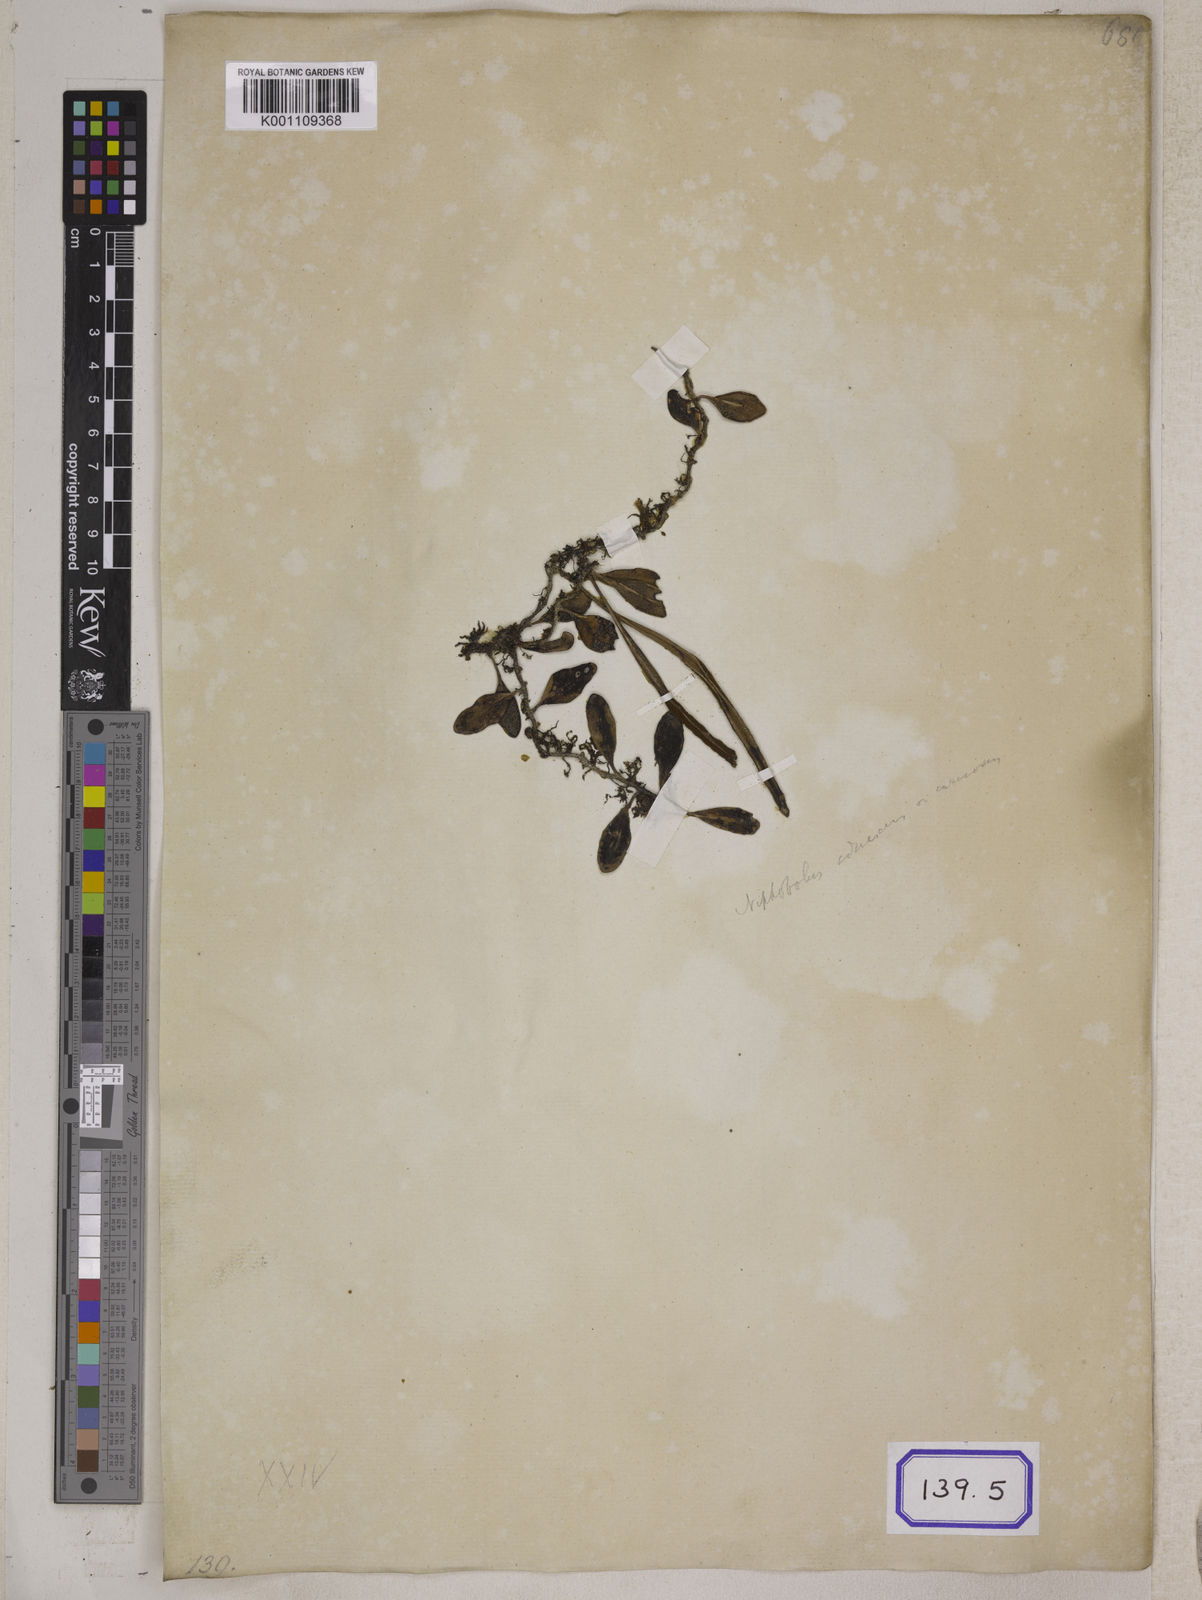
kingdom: Plantae
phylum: Tracheophyta
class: Polypodiopsida
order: Polypodiales
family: Polypodiaceae
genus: Pyrrosia
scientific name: Pyrrosia piloselloides
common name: Epiphytic creeping fern
